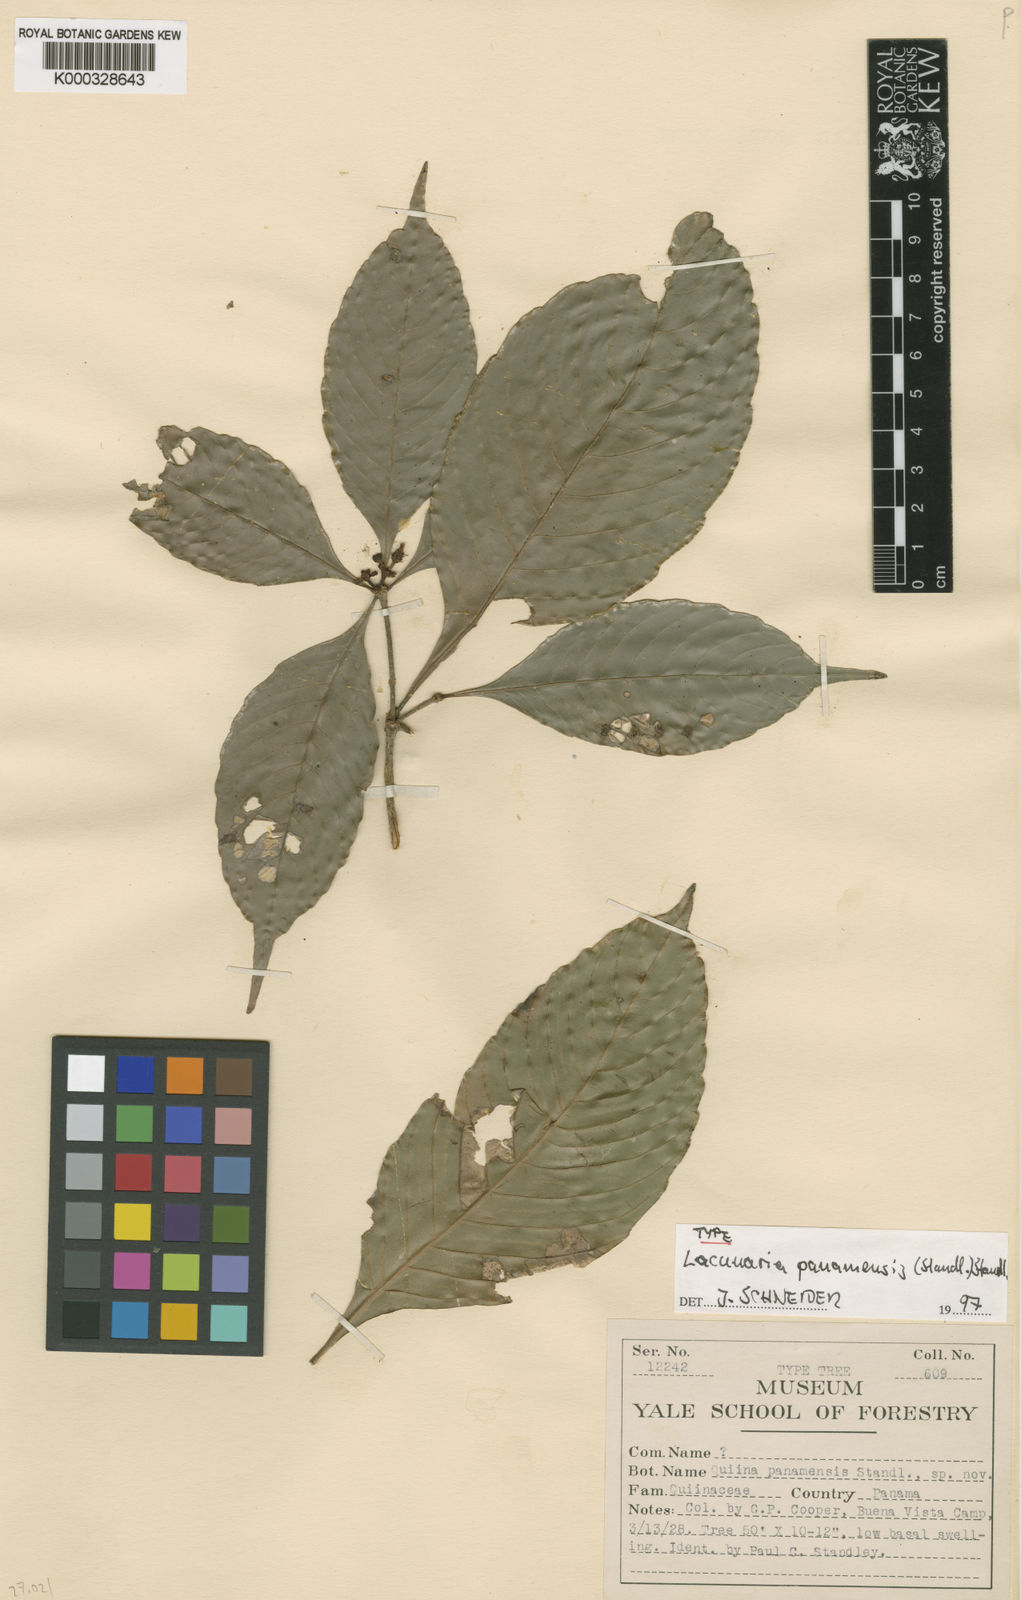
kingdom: Plantae
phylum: Tracheophyta
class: Magnoliopsida
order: Malpighiales
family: Quiinaceae
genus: Lacunaria
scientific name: Lacunaria crenata
